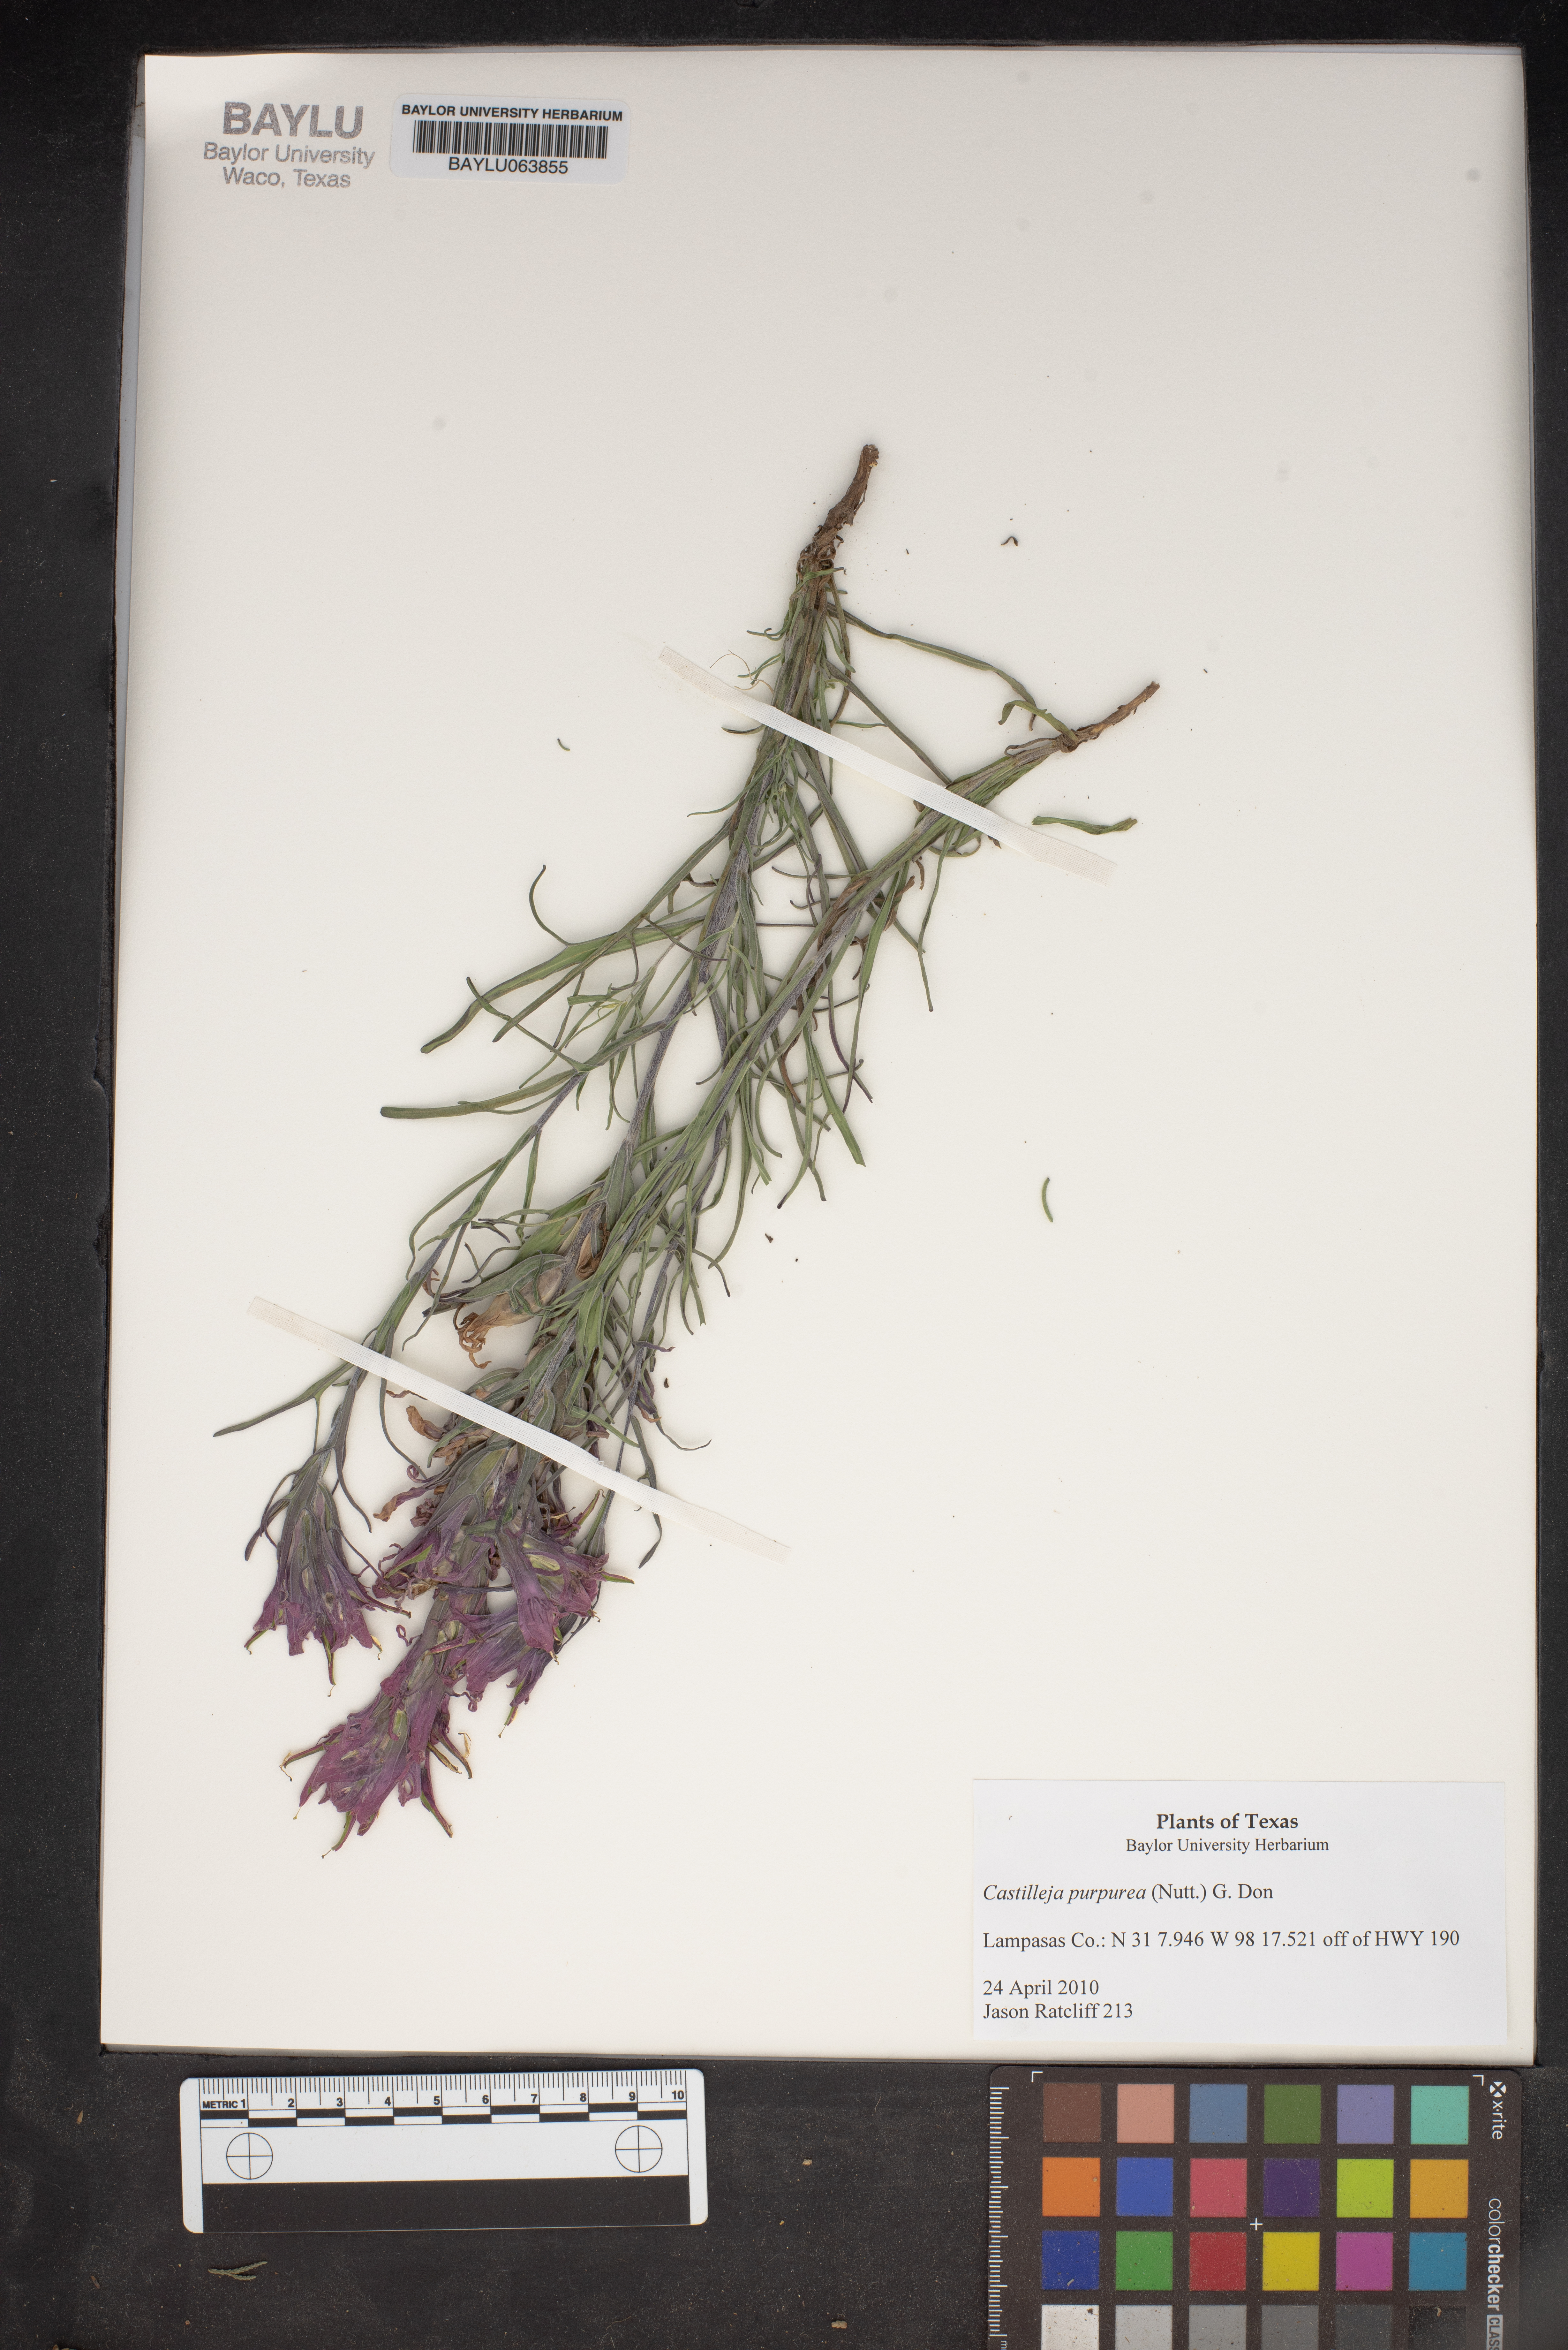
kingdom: Plantae
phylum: Tracheophyta
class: Magnoliopsida
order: Lamiales
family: Orobanchaceae
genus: Castilleja
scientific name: Castilleja purpurea
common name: Plains paintbrush
